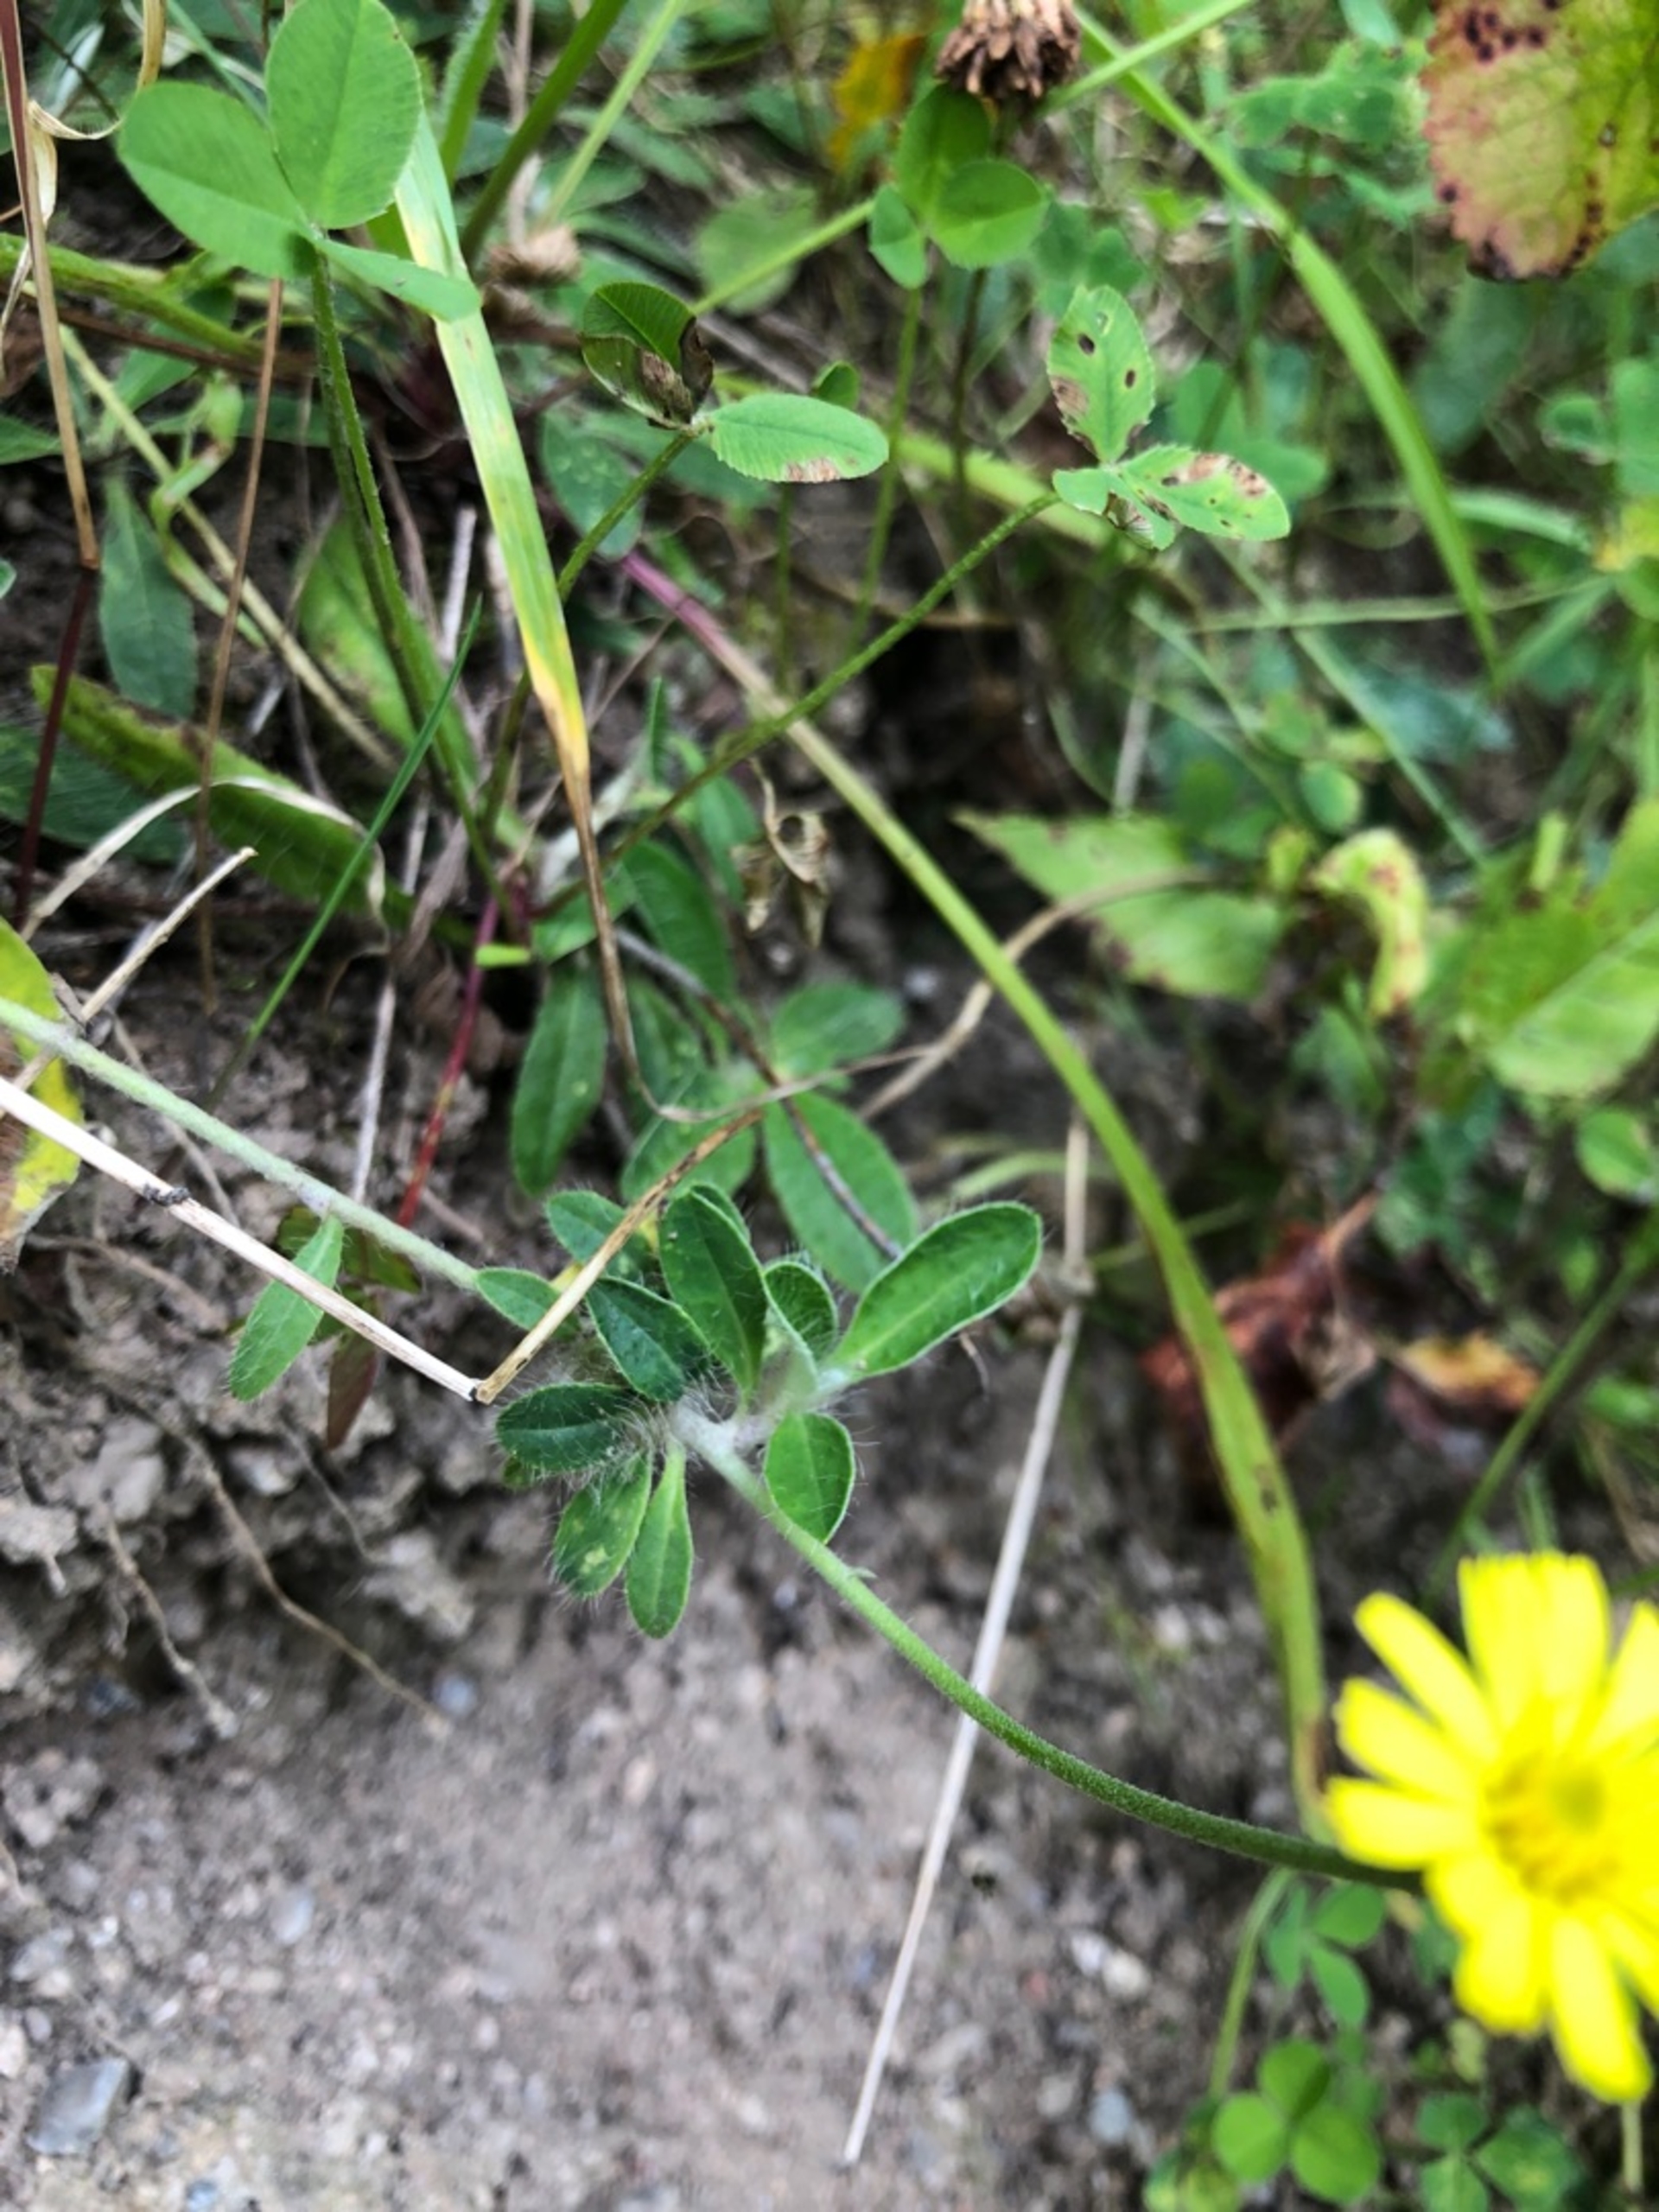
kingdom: Plantae
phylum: Tracheophyta
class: Magnoliopsida
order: Asterales
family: Asteraceae
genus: Pilosella
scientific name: Pilosella officinarum
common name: Håret høgeurt
